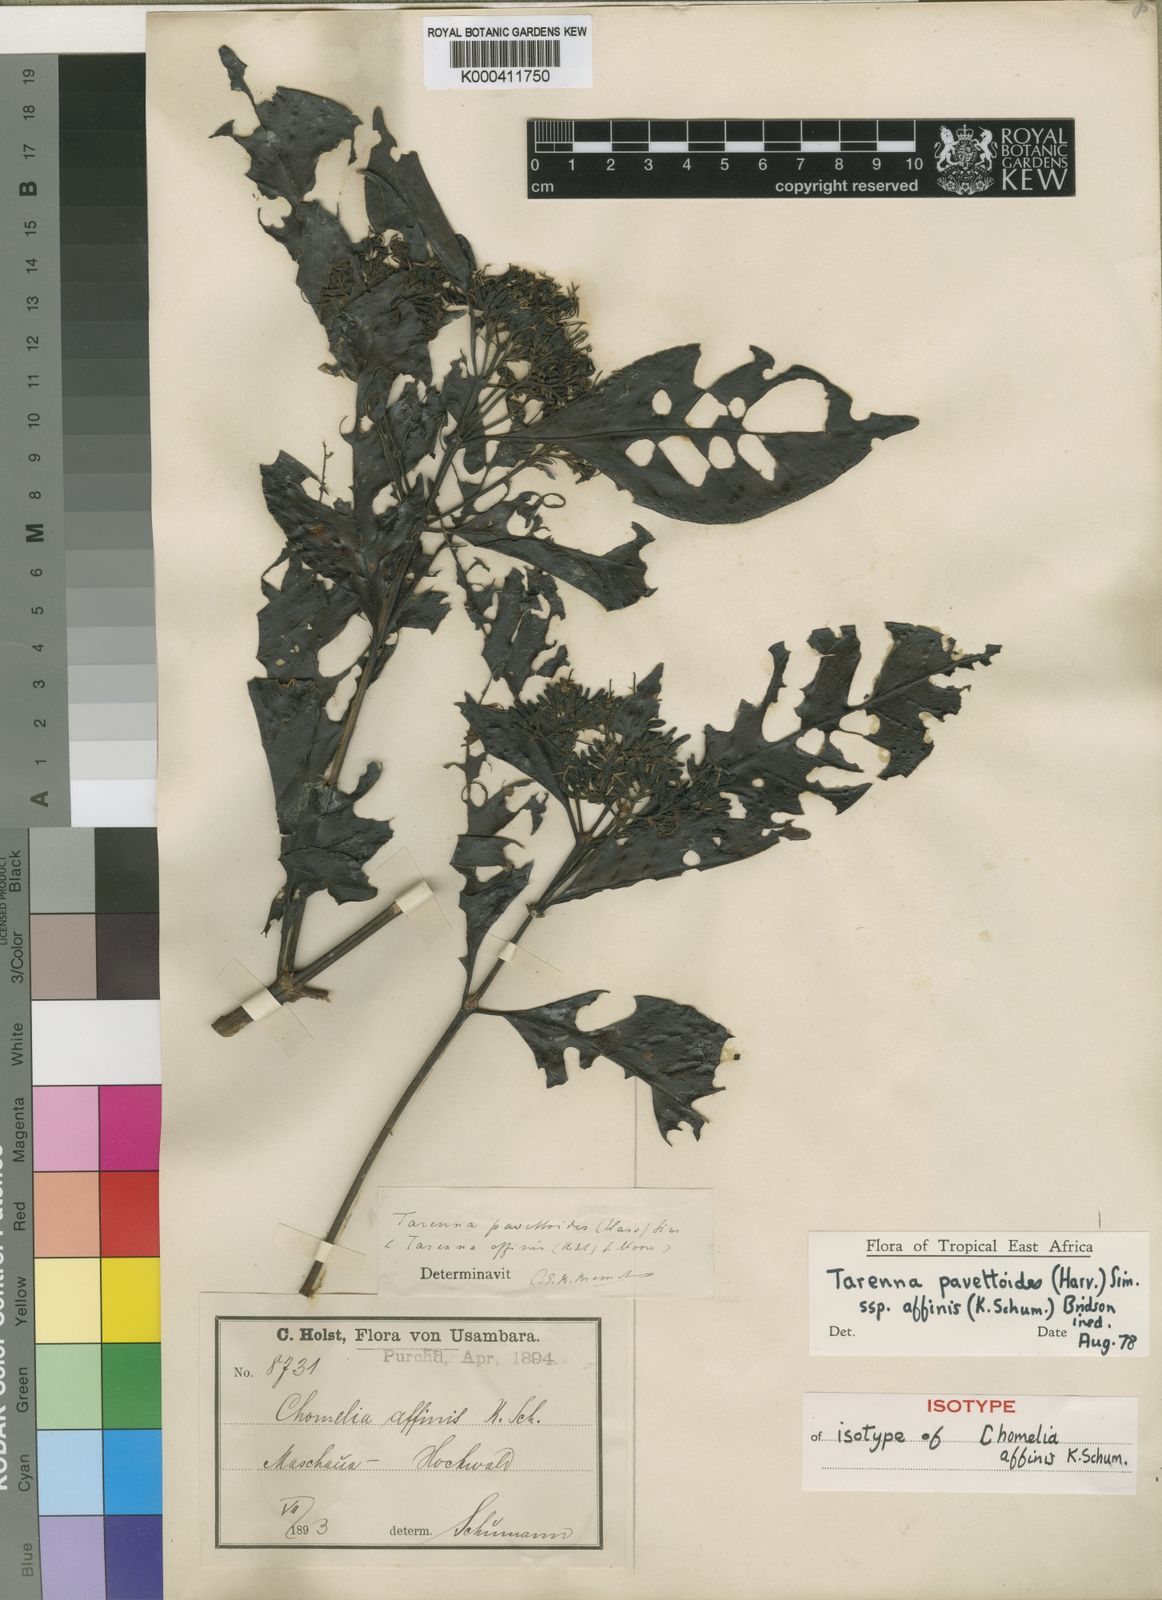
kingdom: Plantae
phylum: Tracheophyta
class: Magnoliopsida
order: Gentianales
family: Rubiaceae
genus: Tarenna
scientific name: Tarenna pavettoides
